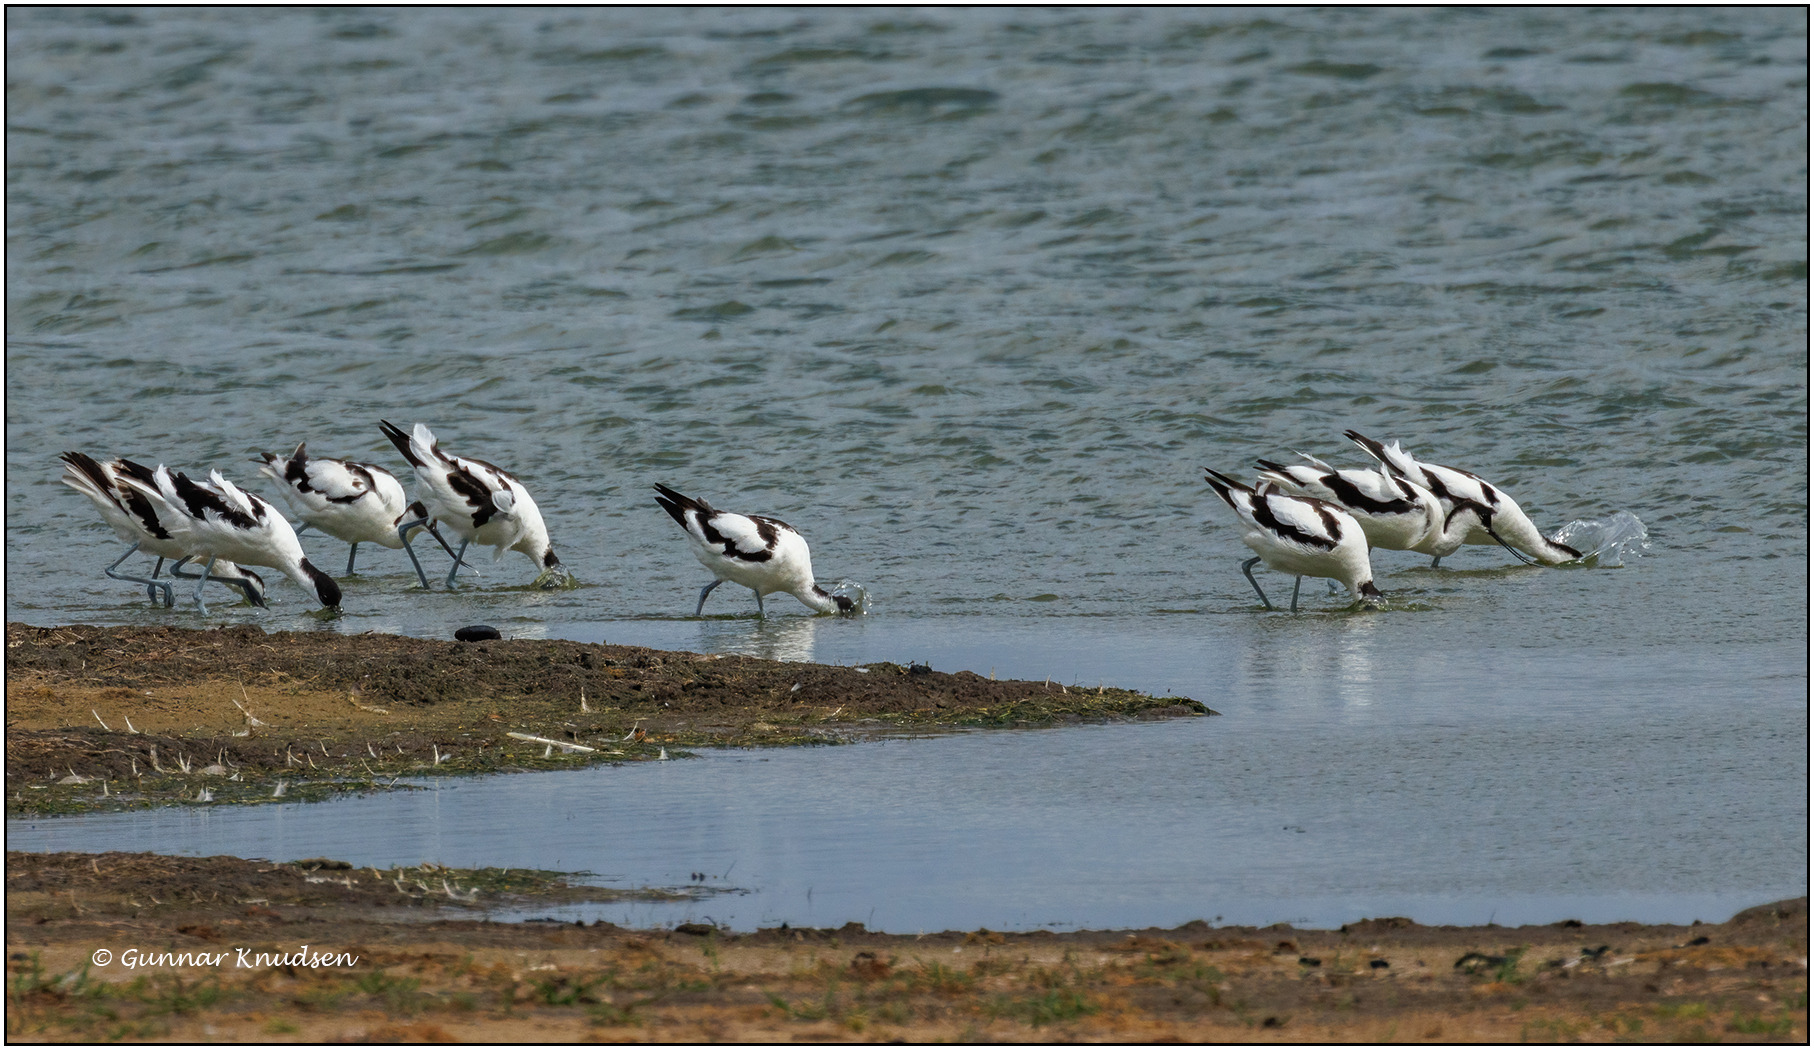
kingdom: Animalia
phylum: Chordata
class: Aves
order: Charadriiformes
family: Recurvirostridae
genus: Recurvirostra
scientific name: Recurvirostra avosetta
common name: Klyde
